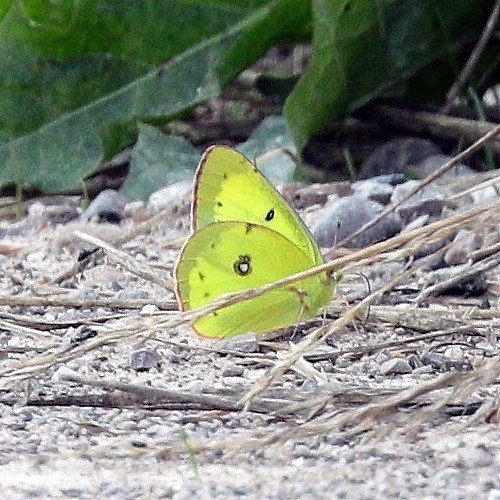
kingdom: Animalia
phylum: Arthropoda
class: Insecta
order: Lepidoptera
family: Pieridae
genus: Colias
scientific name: Colias philodice
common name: Clouded Sulphur
